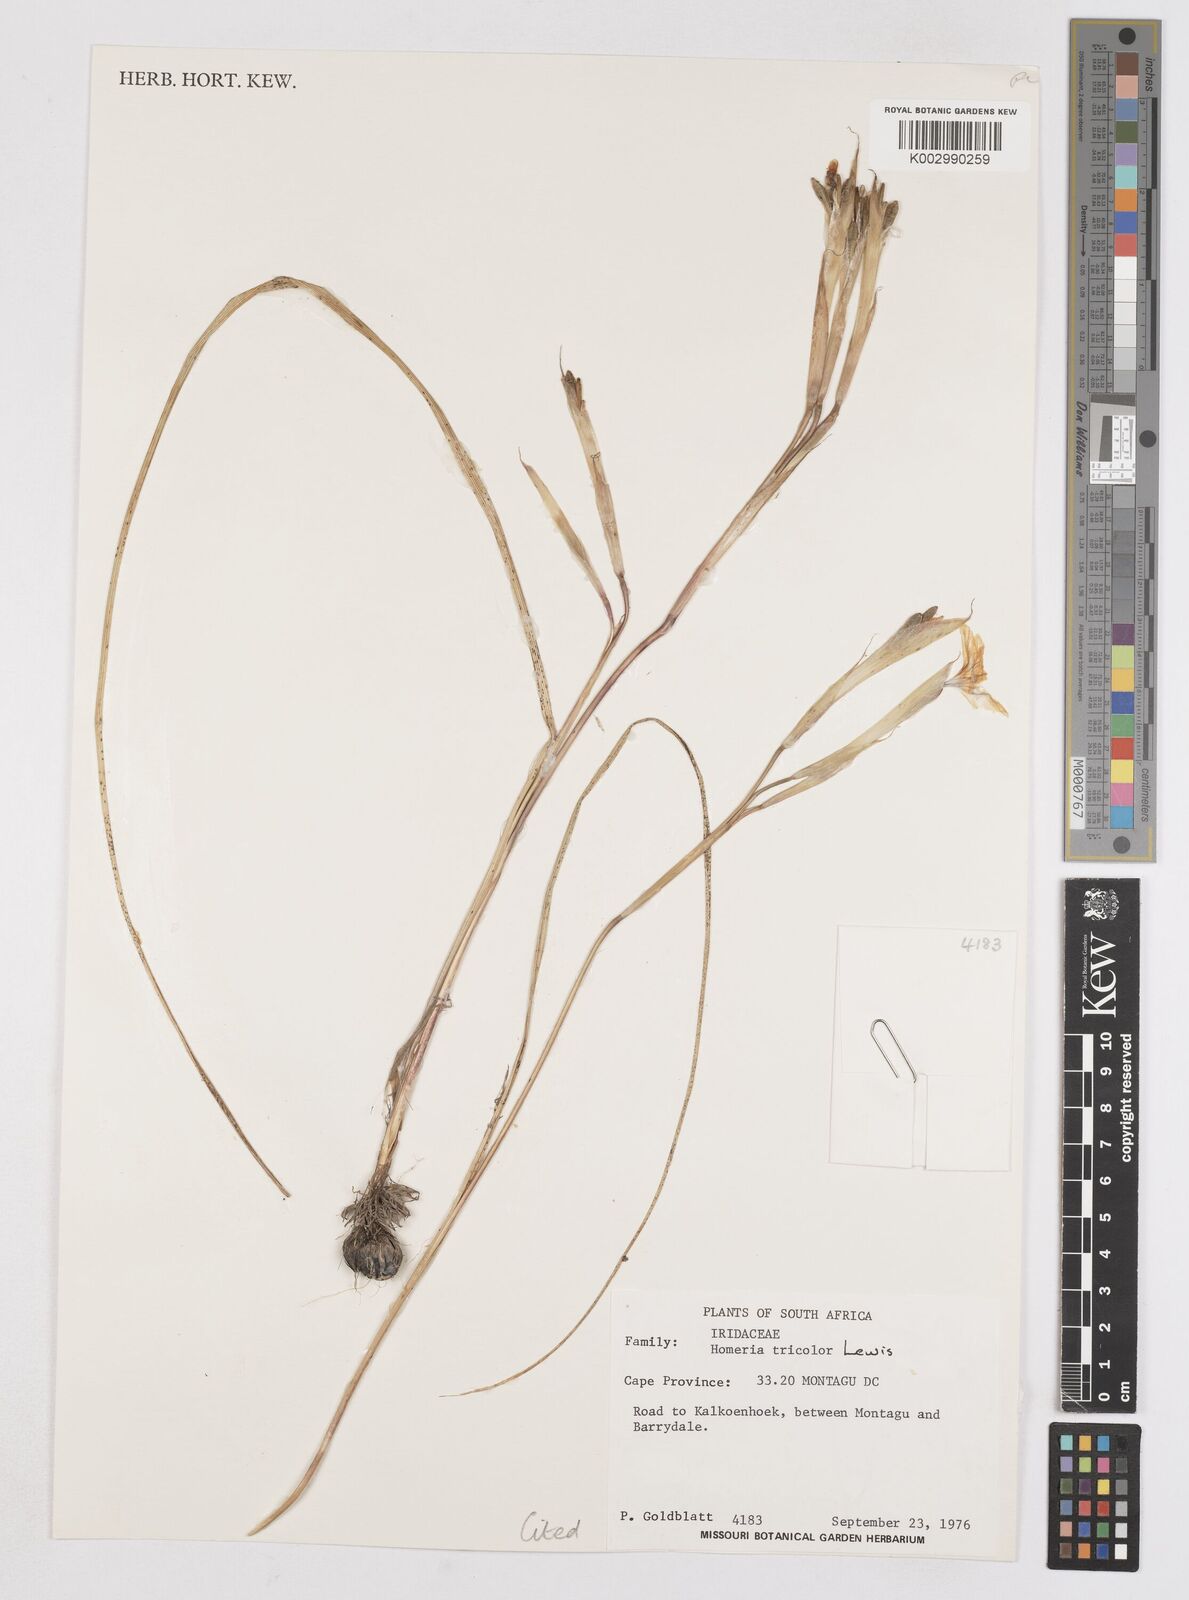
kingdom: Plantae
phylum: Tracheophyta
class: Liliopsida
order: Asparagales
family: Iridaceae
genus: Moraea
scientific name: Moraea
